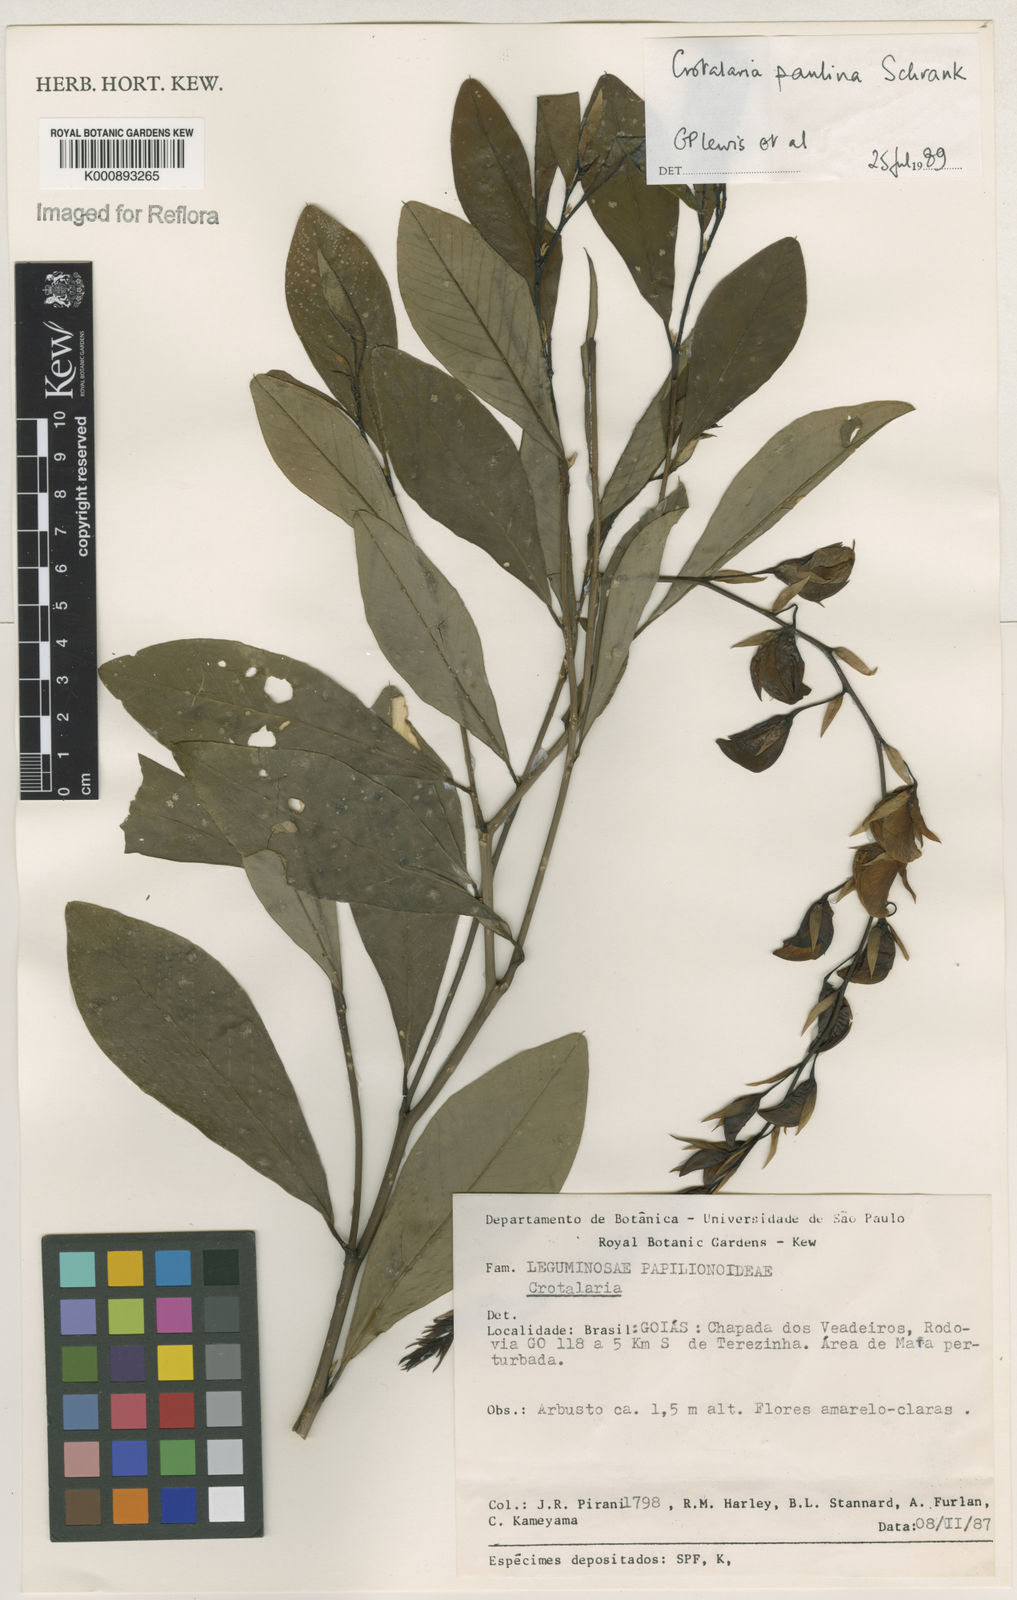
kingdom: Plantae
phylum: Tracheophyta
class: Magnoliopsida
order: Fabales
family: Fabaceae
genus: Crotalaria
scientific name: Crotalaria paulina
